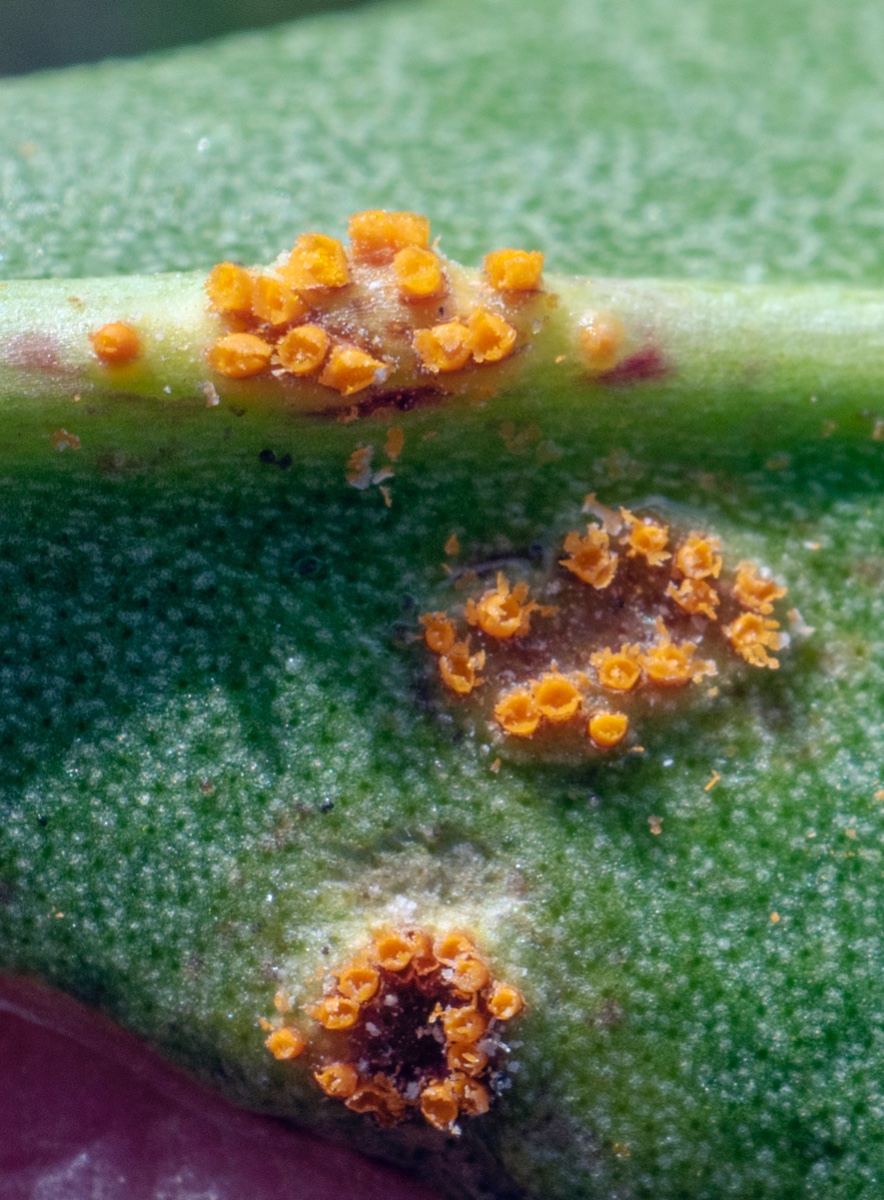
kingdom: Fungi
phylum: Basidiomycota
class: Pucciniomycetes
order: Pucciniales
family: Pucciniaceae
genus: Uromyces
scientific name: Uromyces limonii
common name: hindebæger-encellerust
